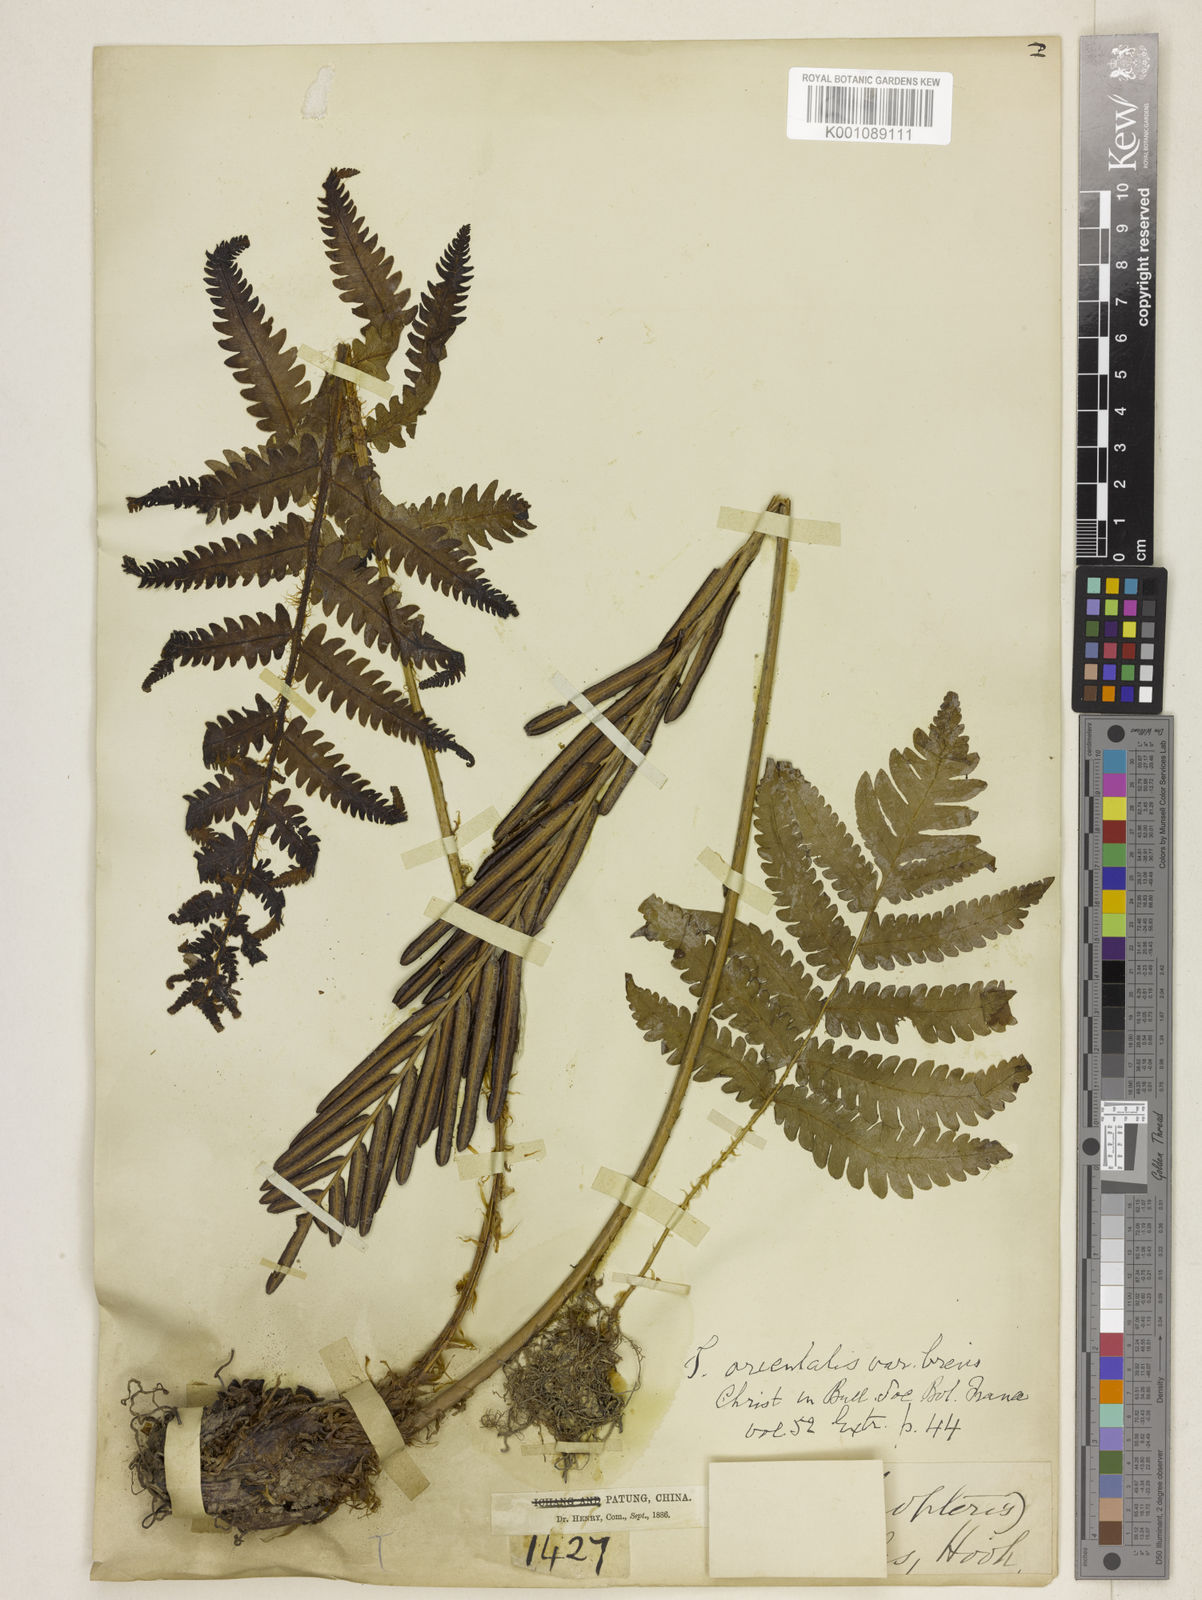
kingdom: Plantae
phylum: Tracheophyta
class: Polypodiopsida
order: Polypodiales
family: Onocleaceae
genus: Pentarhizidium
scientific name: Pentarhizidium orientale
